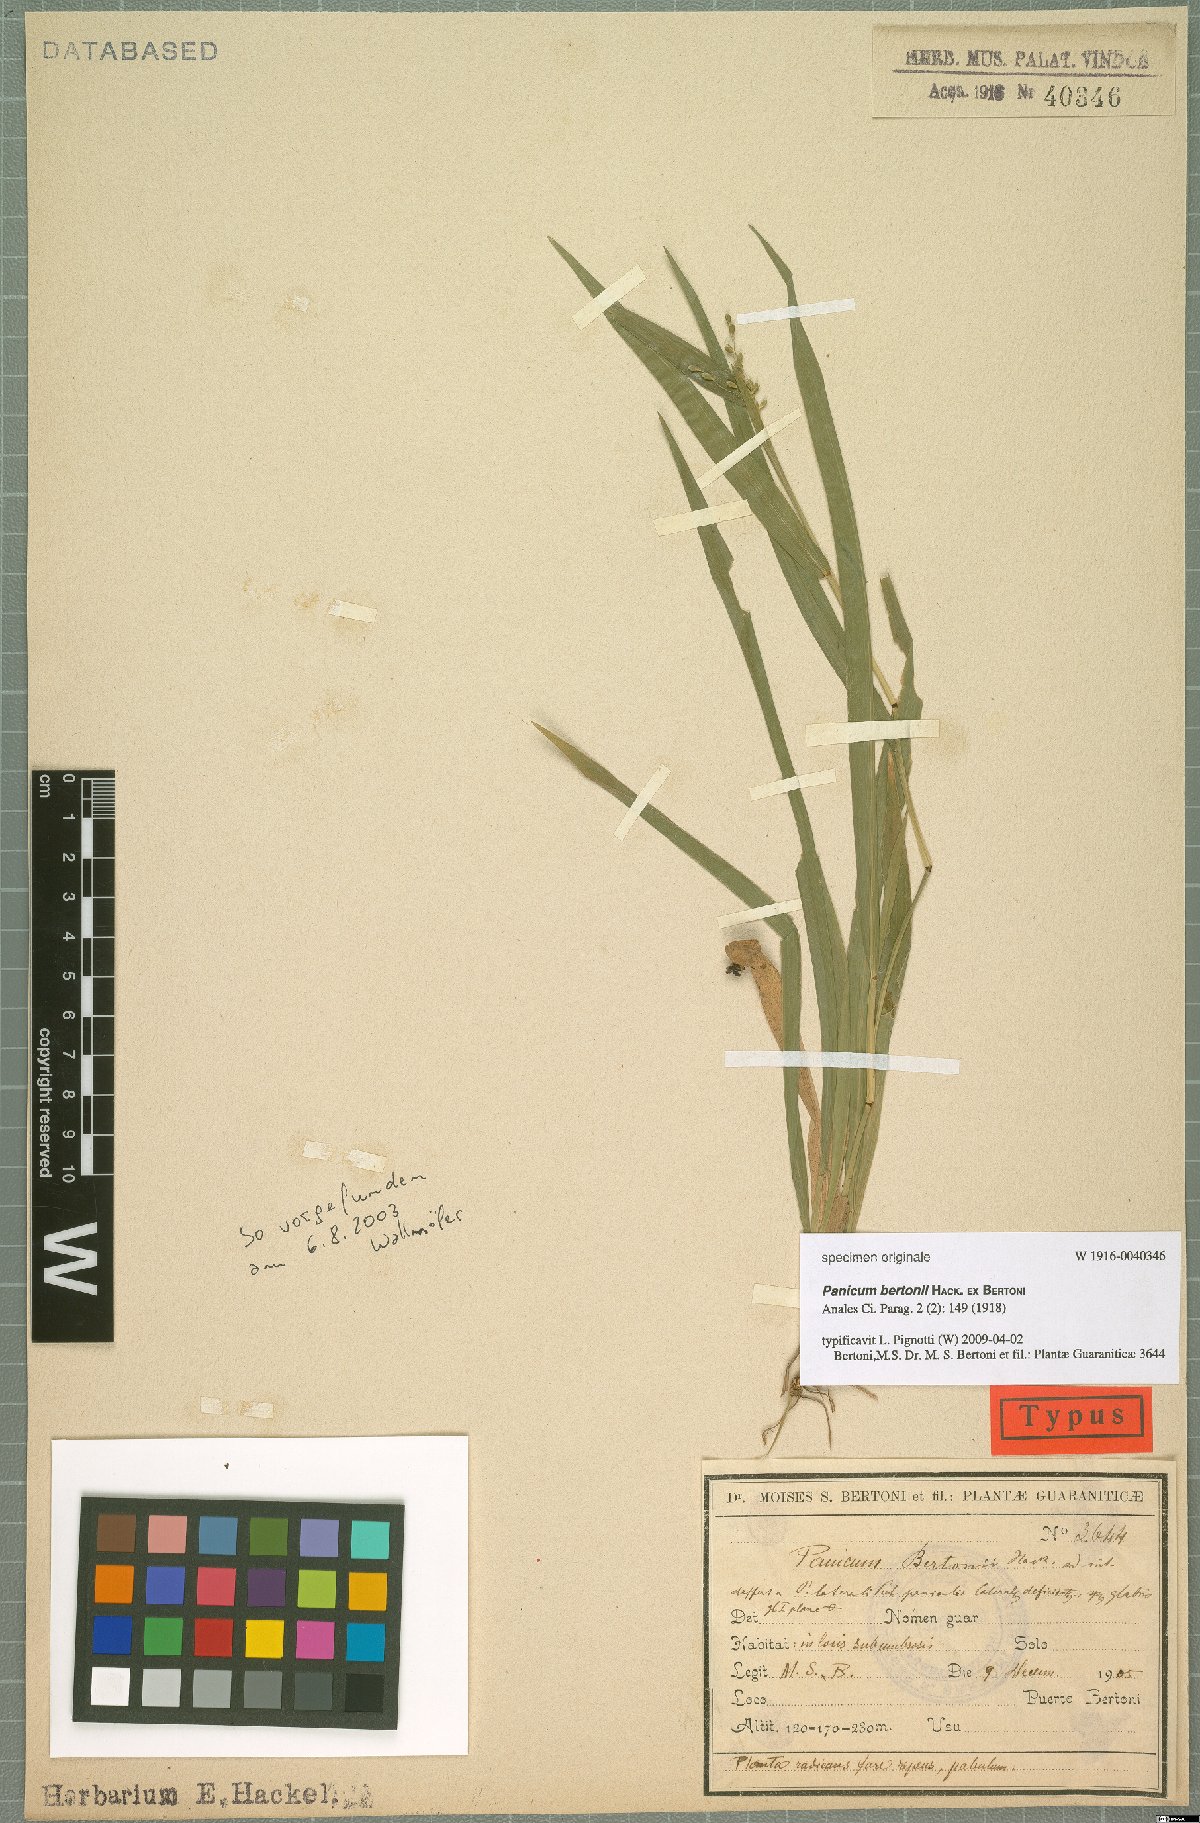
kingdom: Plantae
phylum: Tracheophyta
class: Liliopsida
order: Poales
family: Poaceae
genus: Panicum
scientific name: Panicum bertonii
